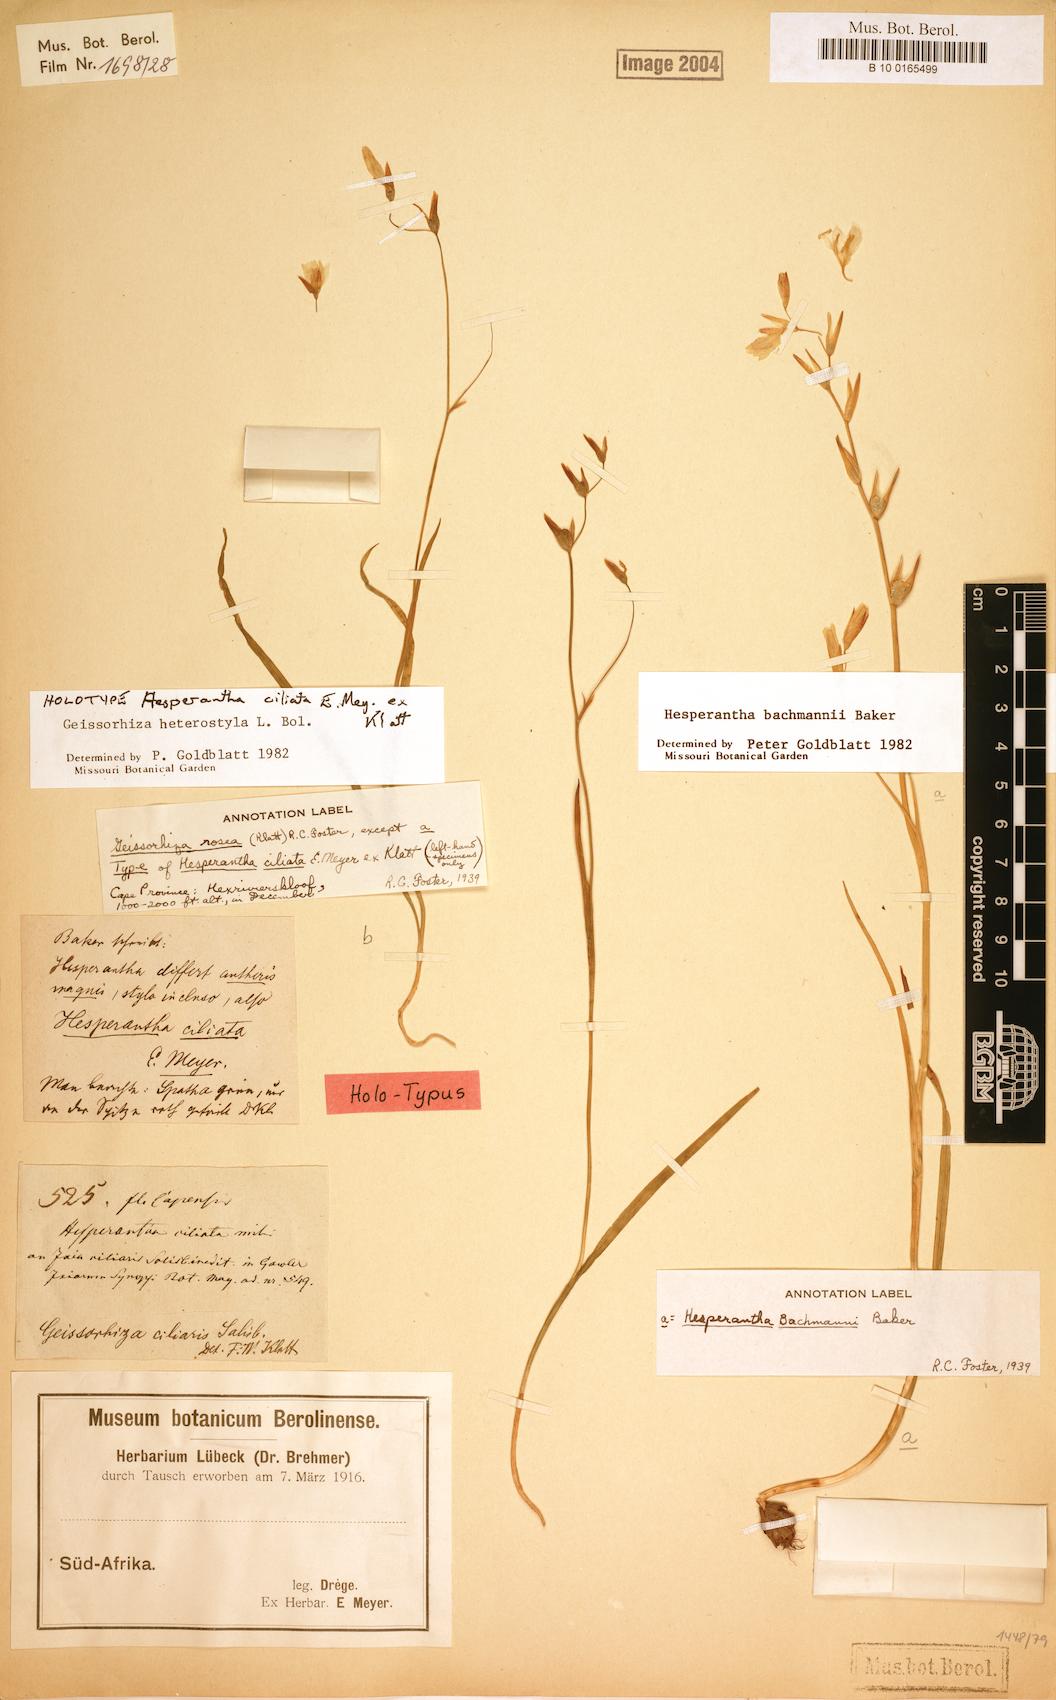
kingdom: Plantae
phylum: Tracheophyta
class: Liliopsida
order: Asparagales
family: Iridaceae
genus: Geissorhiza
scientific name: Geissorhiza heterostyla
